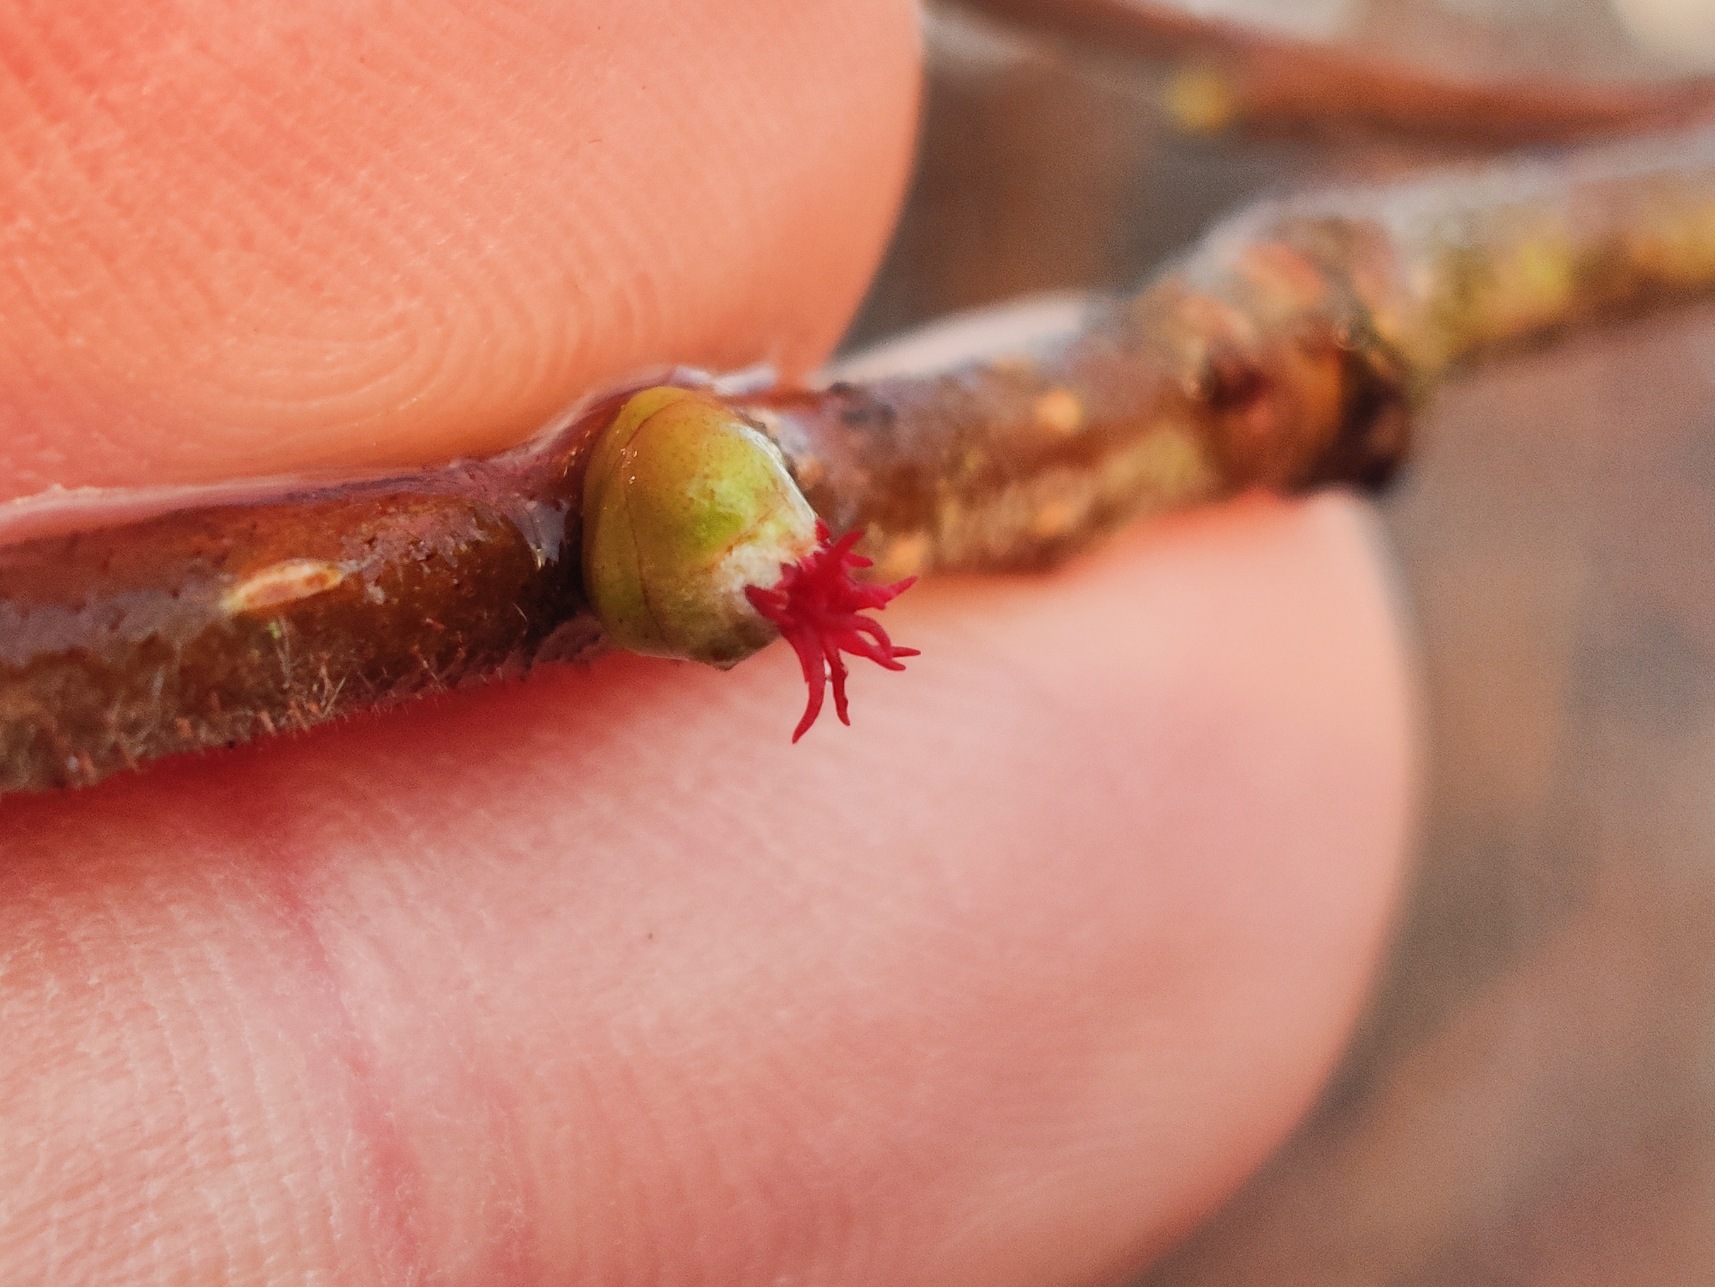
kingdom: Plantae
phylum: Tracheophyta
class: Magnoliopsida
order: Fagales
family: Betulaceae
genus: Corylus
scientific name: Corylus avellana
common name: Hassel
